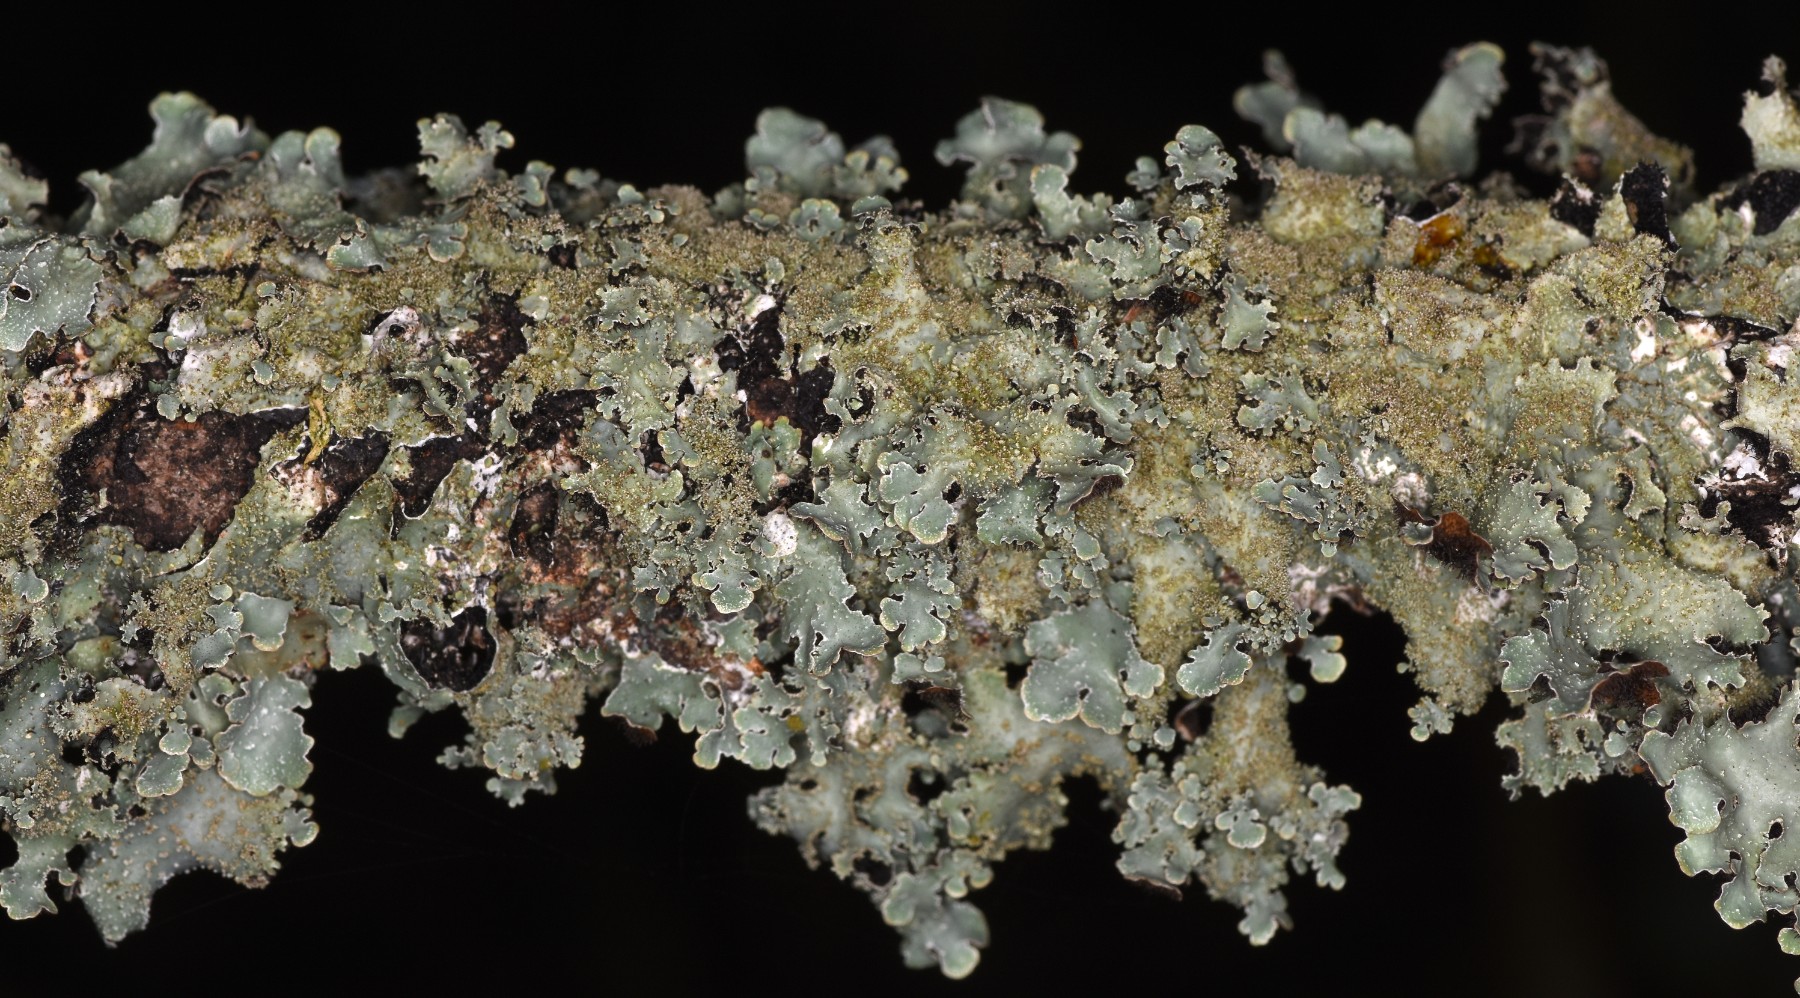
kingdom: Fungi
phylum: Ascomycota
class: Lecanoromycetes
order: Lecanorales
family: Parmeliaceae
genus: Parmelia
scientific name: Parmelia saxatilis
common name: farve-skållav
